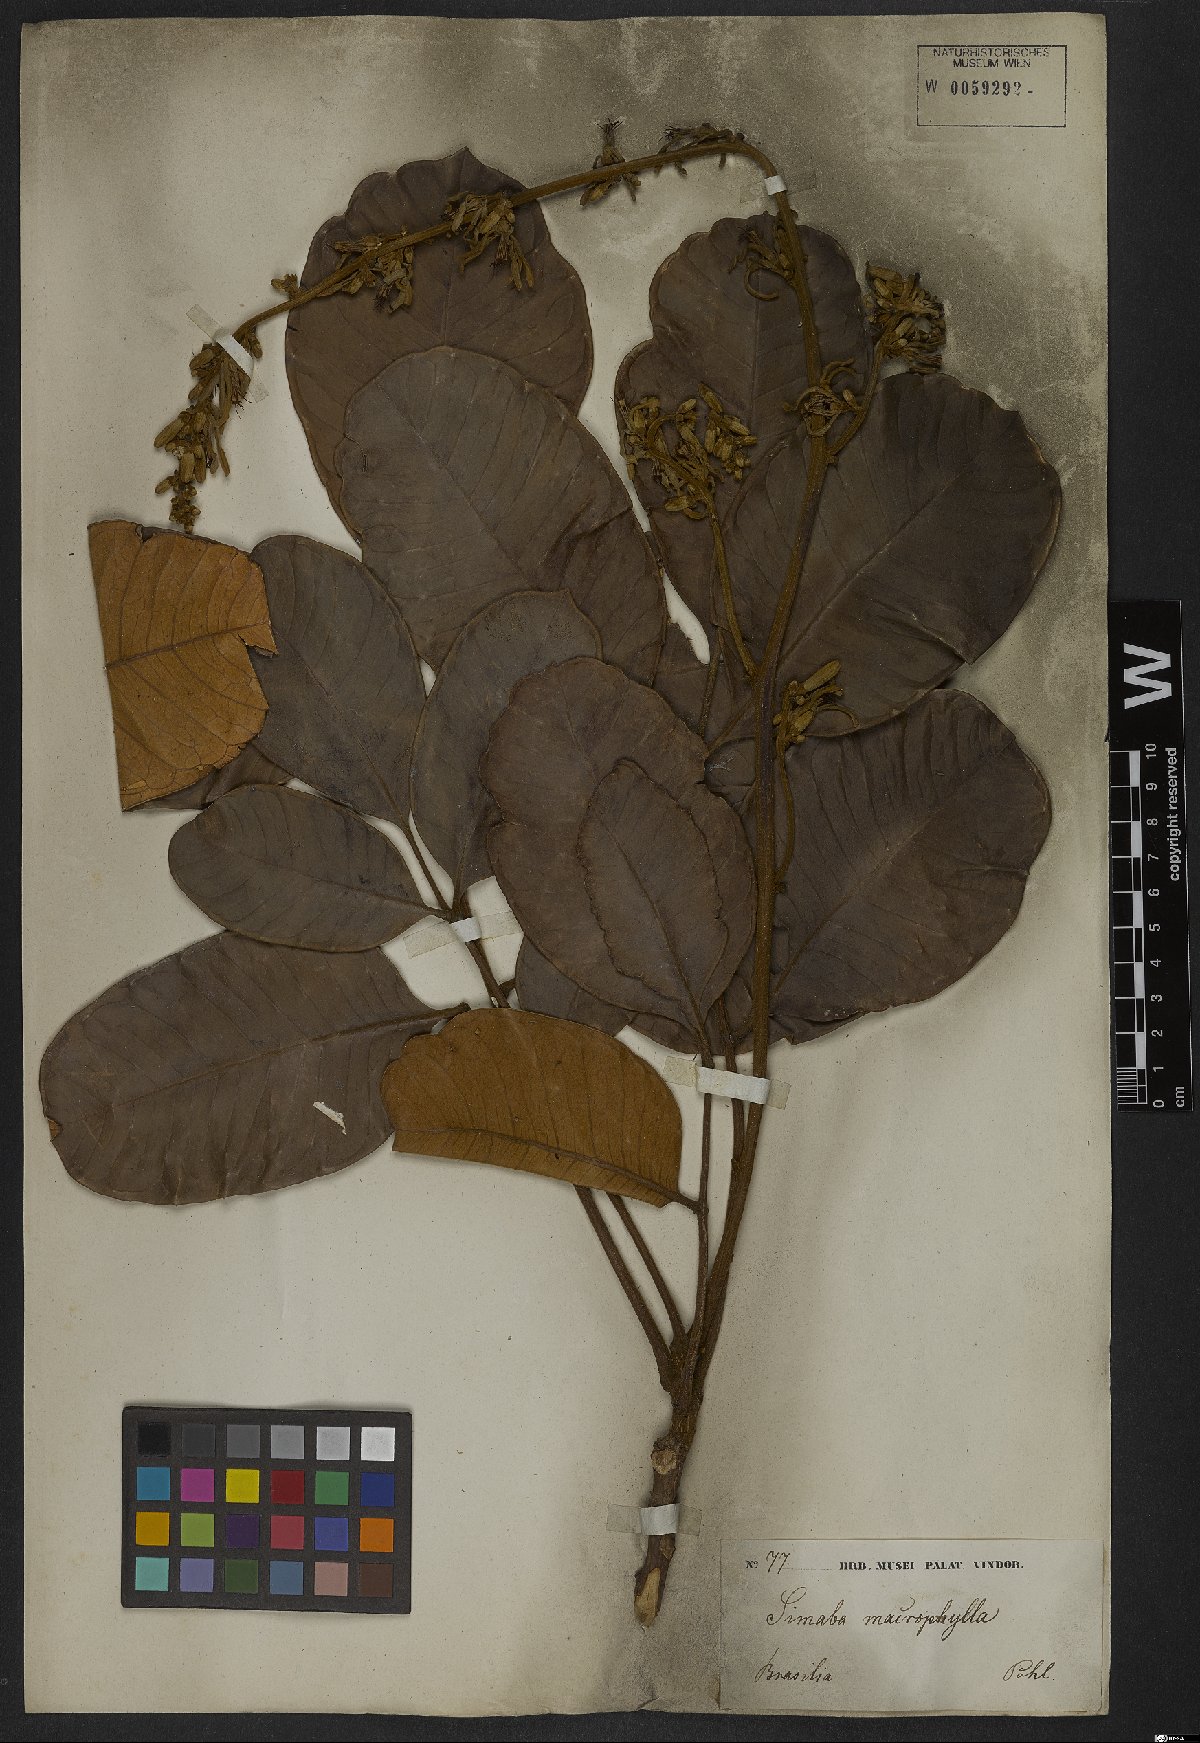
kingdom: Plantae
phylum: Tracheophyta
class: Magnoliopsida
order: Sapindales
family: Simaroubaceae
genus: Homalolepis
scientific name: Homalolepis trichilioides
